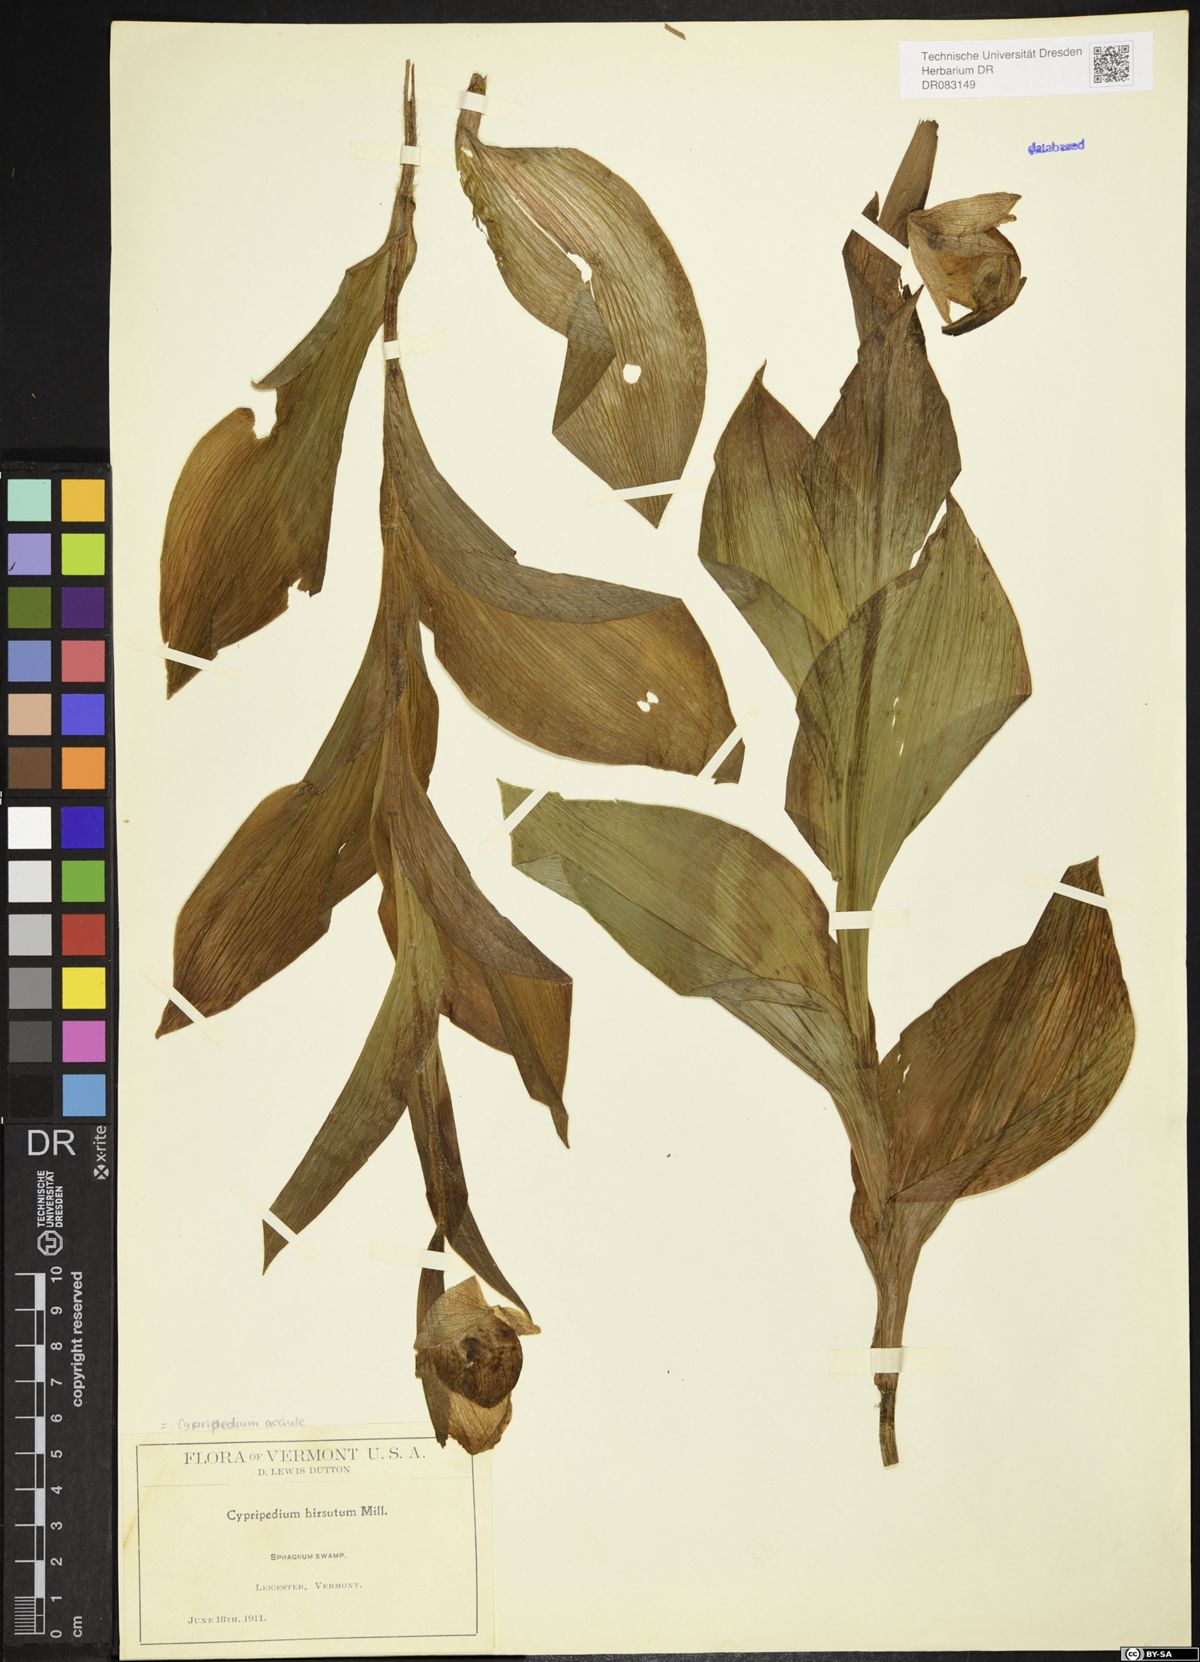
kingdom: Plantae
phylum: Tracheophyta
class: Liliopsida
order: Asparagales
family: Orchidaceae
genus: Cypripedium
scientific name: Cypripedium acaule
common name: Pink lady's-slipper
